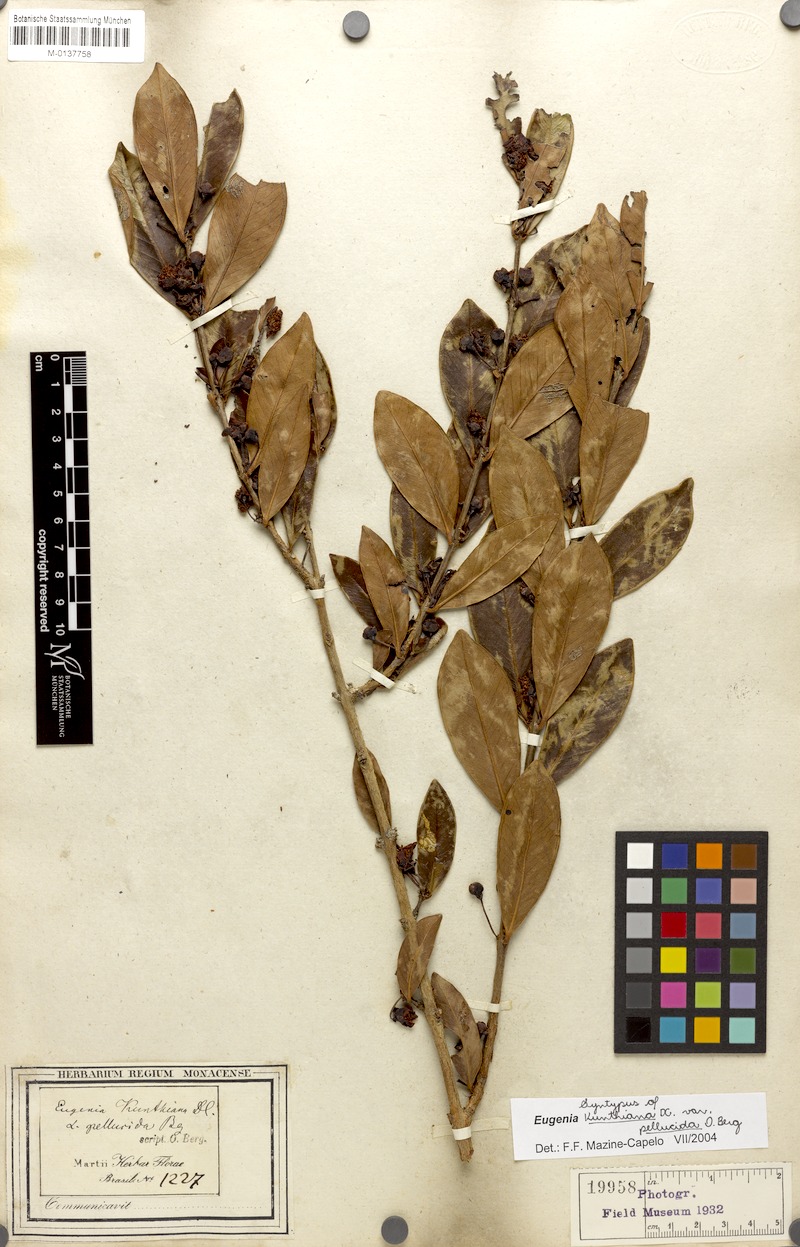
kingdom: Plantae
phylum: Tracheophyta
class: Magnoliopsida
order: Myrtales
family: Myrtaceae
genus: Eugenia
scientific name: Eugenia punicifolia
